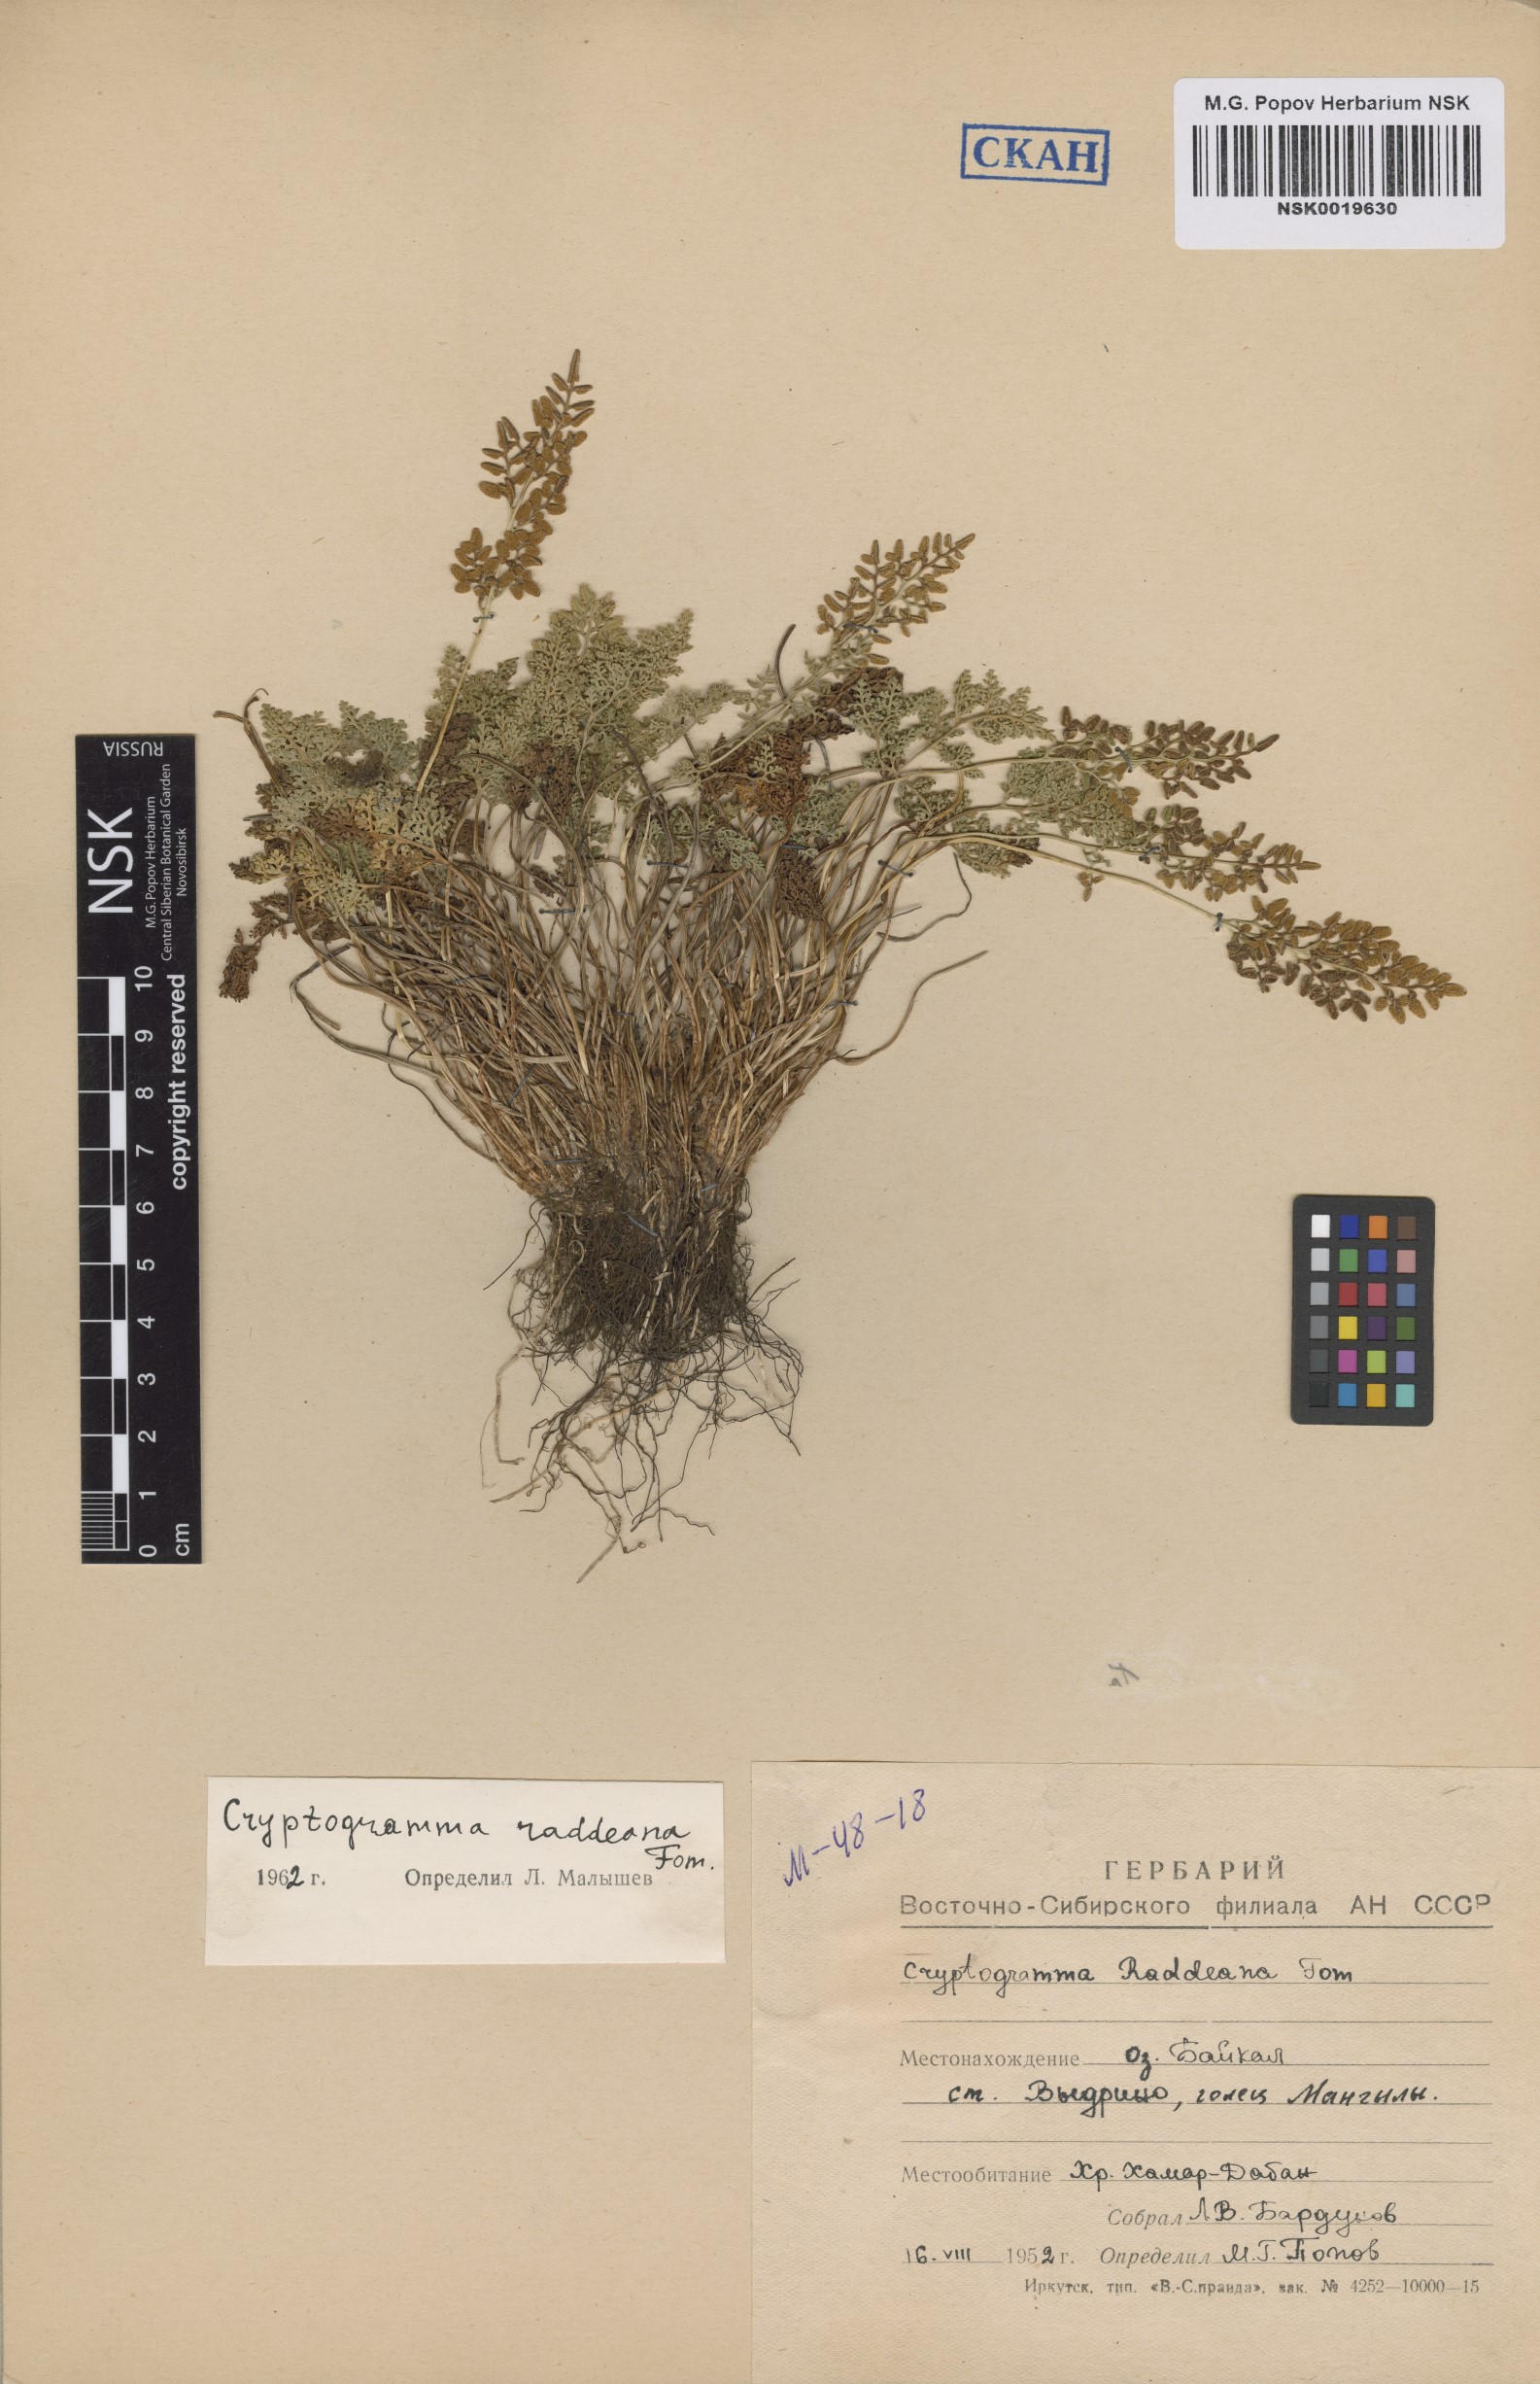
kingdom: Plantae
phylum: Tracheophyta
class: Polypodiopsida
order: Polypodiales
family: Pteridaceae
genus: Cryptogramma
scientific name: Cryptogramma brunoniana
